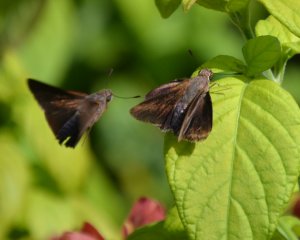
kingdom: Animalia
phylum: Arthropoda
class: Insecta
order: Lepidoptera
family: Hesperiidae
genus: Asbolis
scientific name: Asbolis capucinus
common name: Monk Skipper
